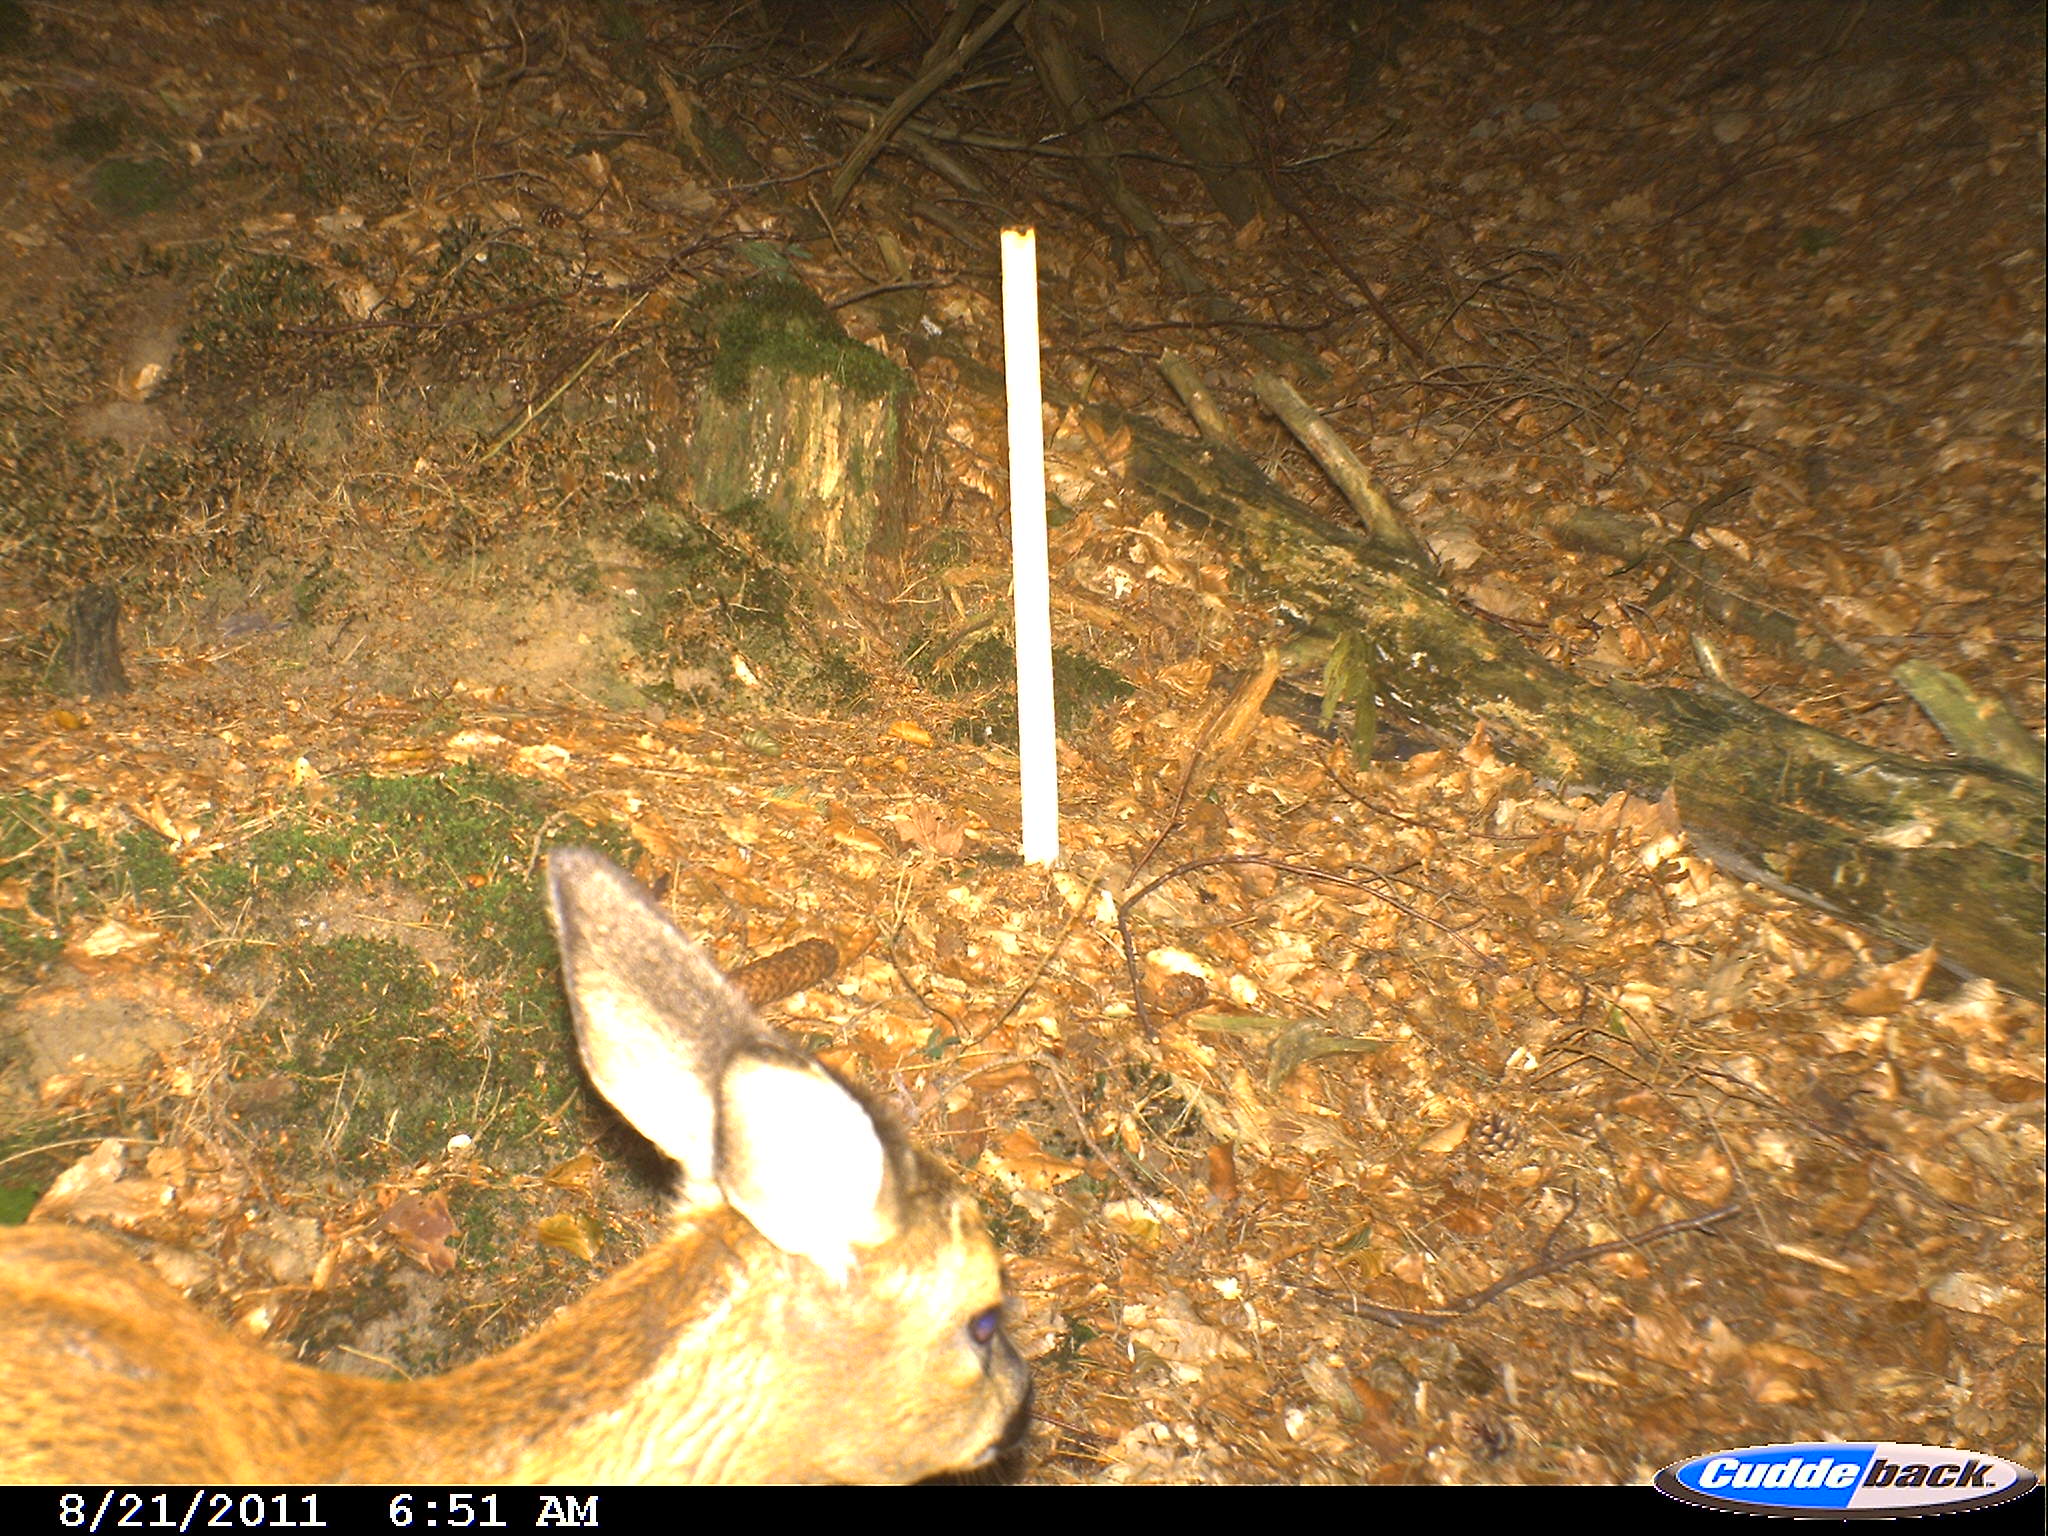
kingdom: Animalia
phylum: Chordata
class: Mammalia
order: Artiodactyla
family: Cervidae
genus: Capreolus
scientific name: Capreolus capreolus
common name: Western roe deer
